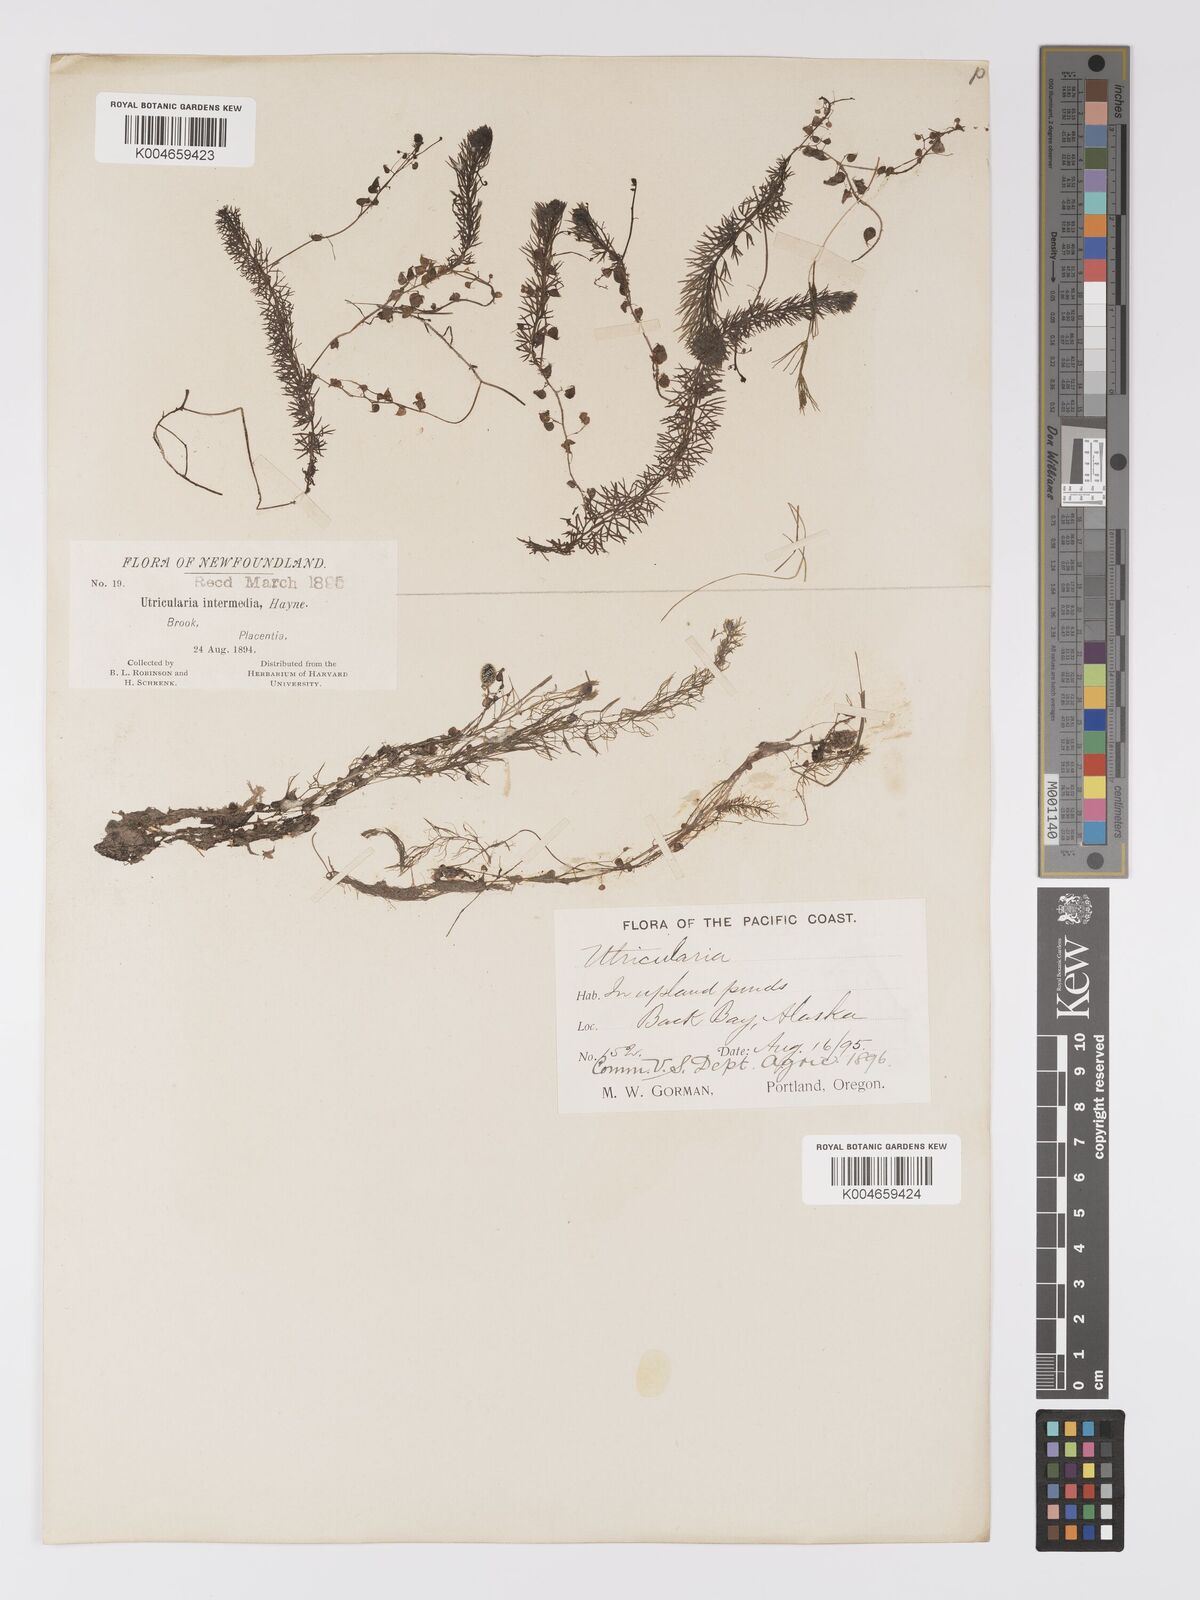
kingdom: Plantae
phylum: Tracheophyta
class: Magnoliopsida
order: Lamiales
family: Lentibulariaceae
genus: Utricularia
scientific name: Utricularia intermedia
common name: Intermediate bladderwort
